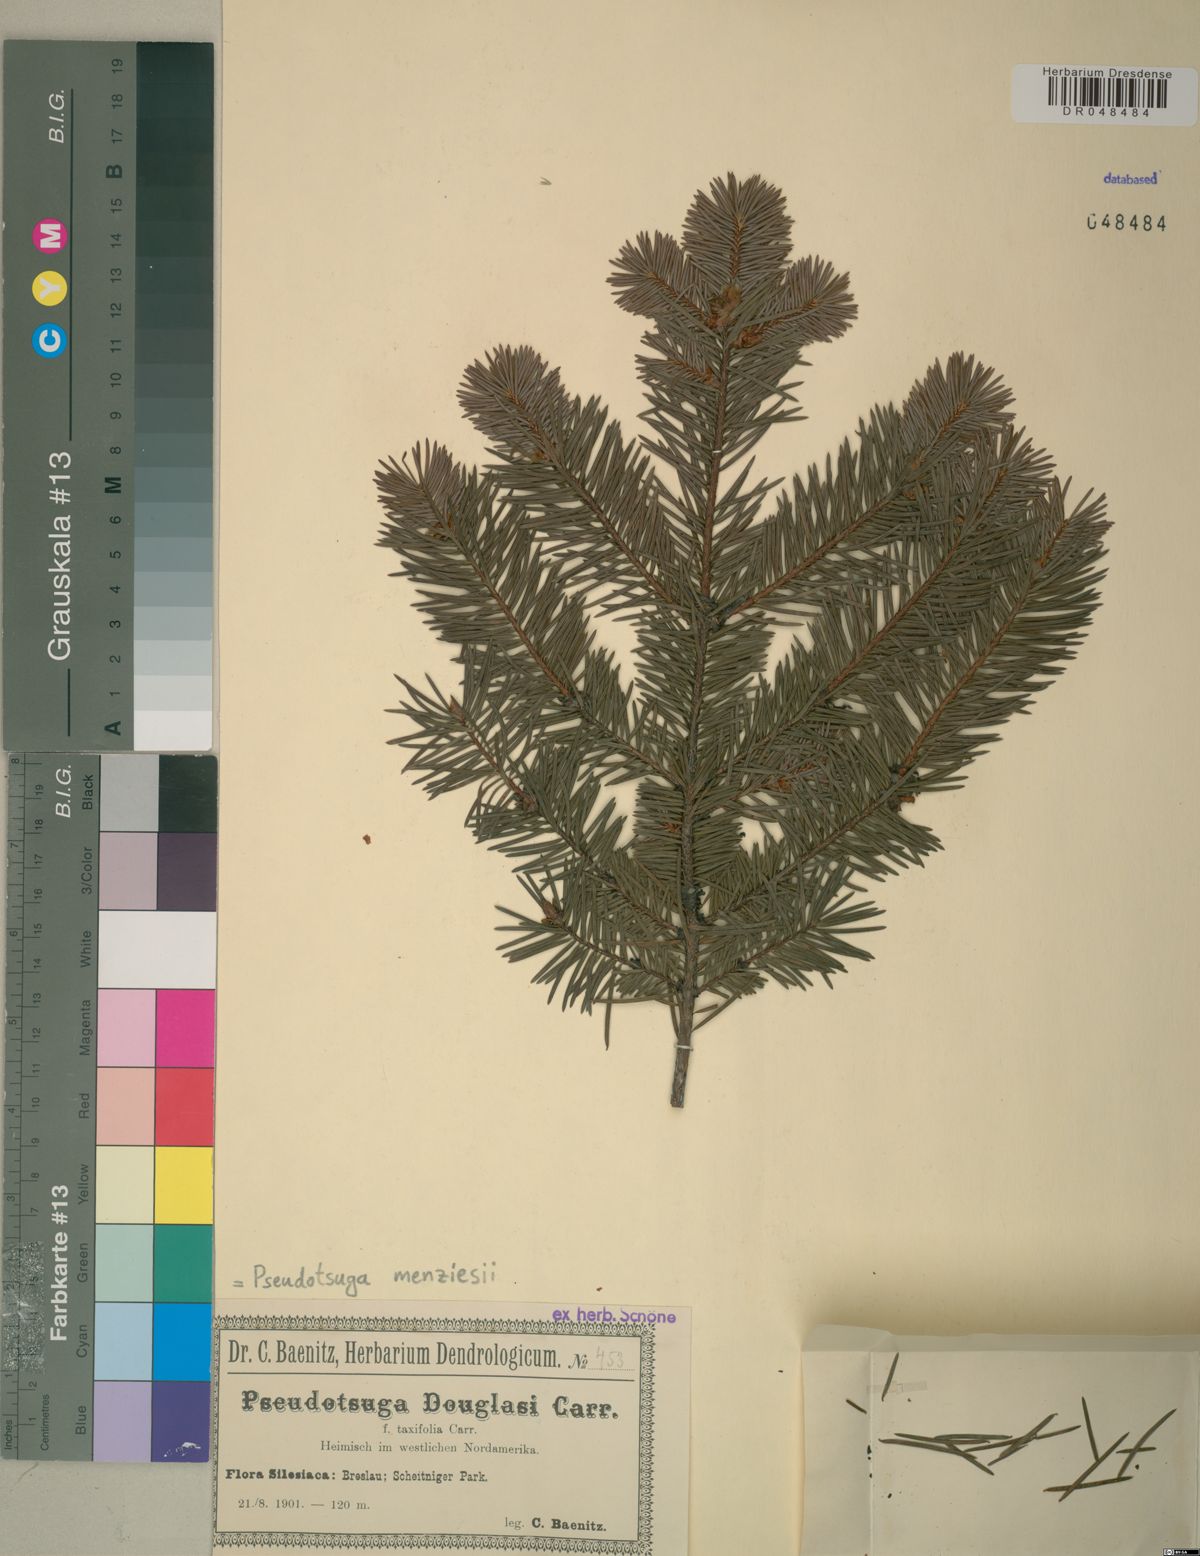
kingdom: Plantae
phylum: Tracheophyta
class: Pinopsida
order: Pinales
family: Pinaceae
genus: Pseudotsuga
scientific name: Pseudotsuga menziesii
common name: Douglas fir
